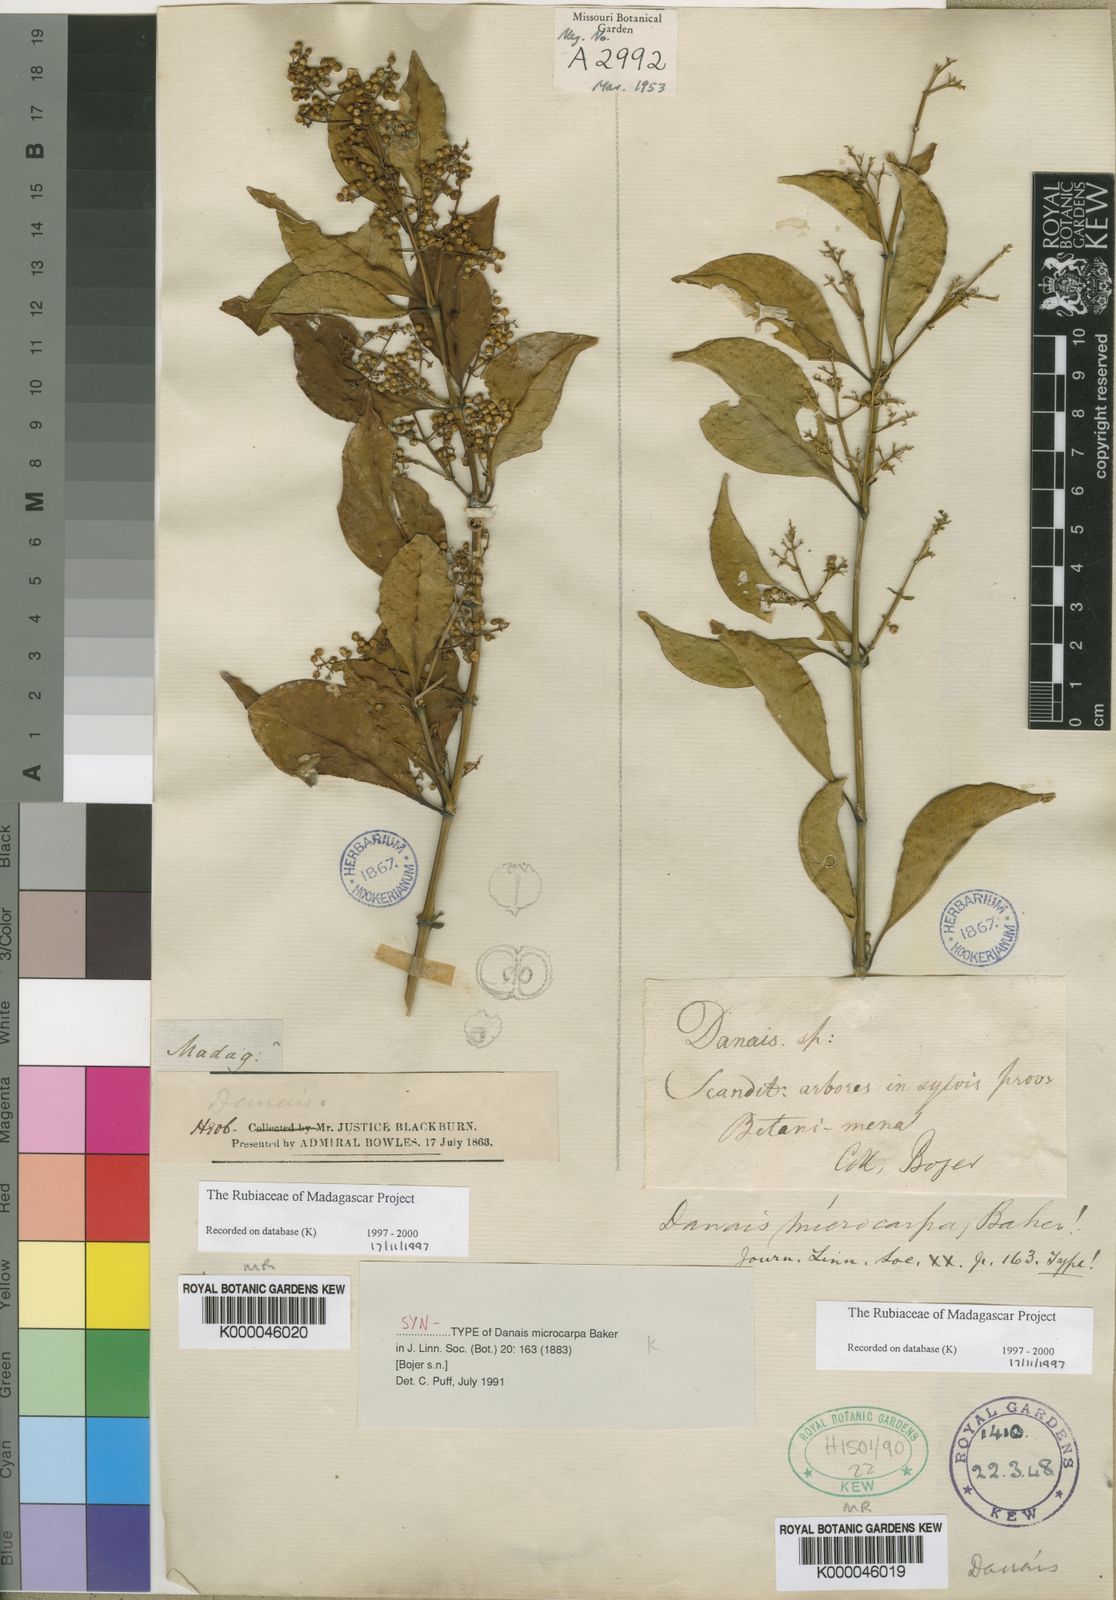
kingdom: Plantae
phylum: Tracheophyta
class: Magnoliopsida
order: Gentianales
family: Rubiaceae
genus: Danais
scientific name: Danais microcarpa
